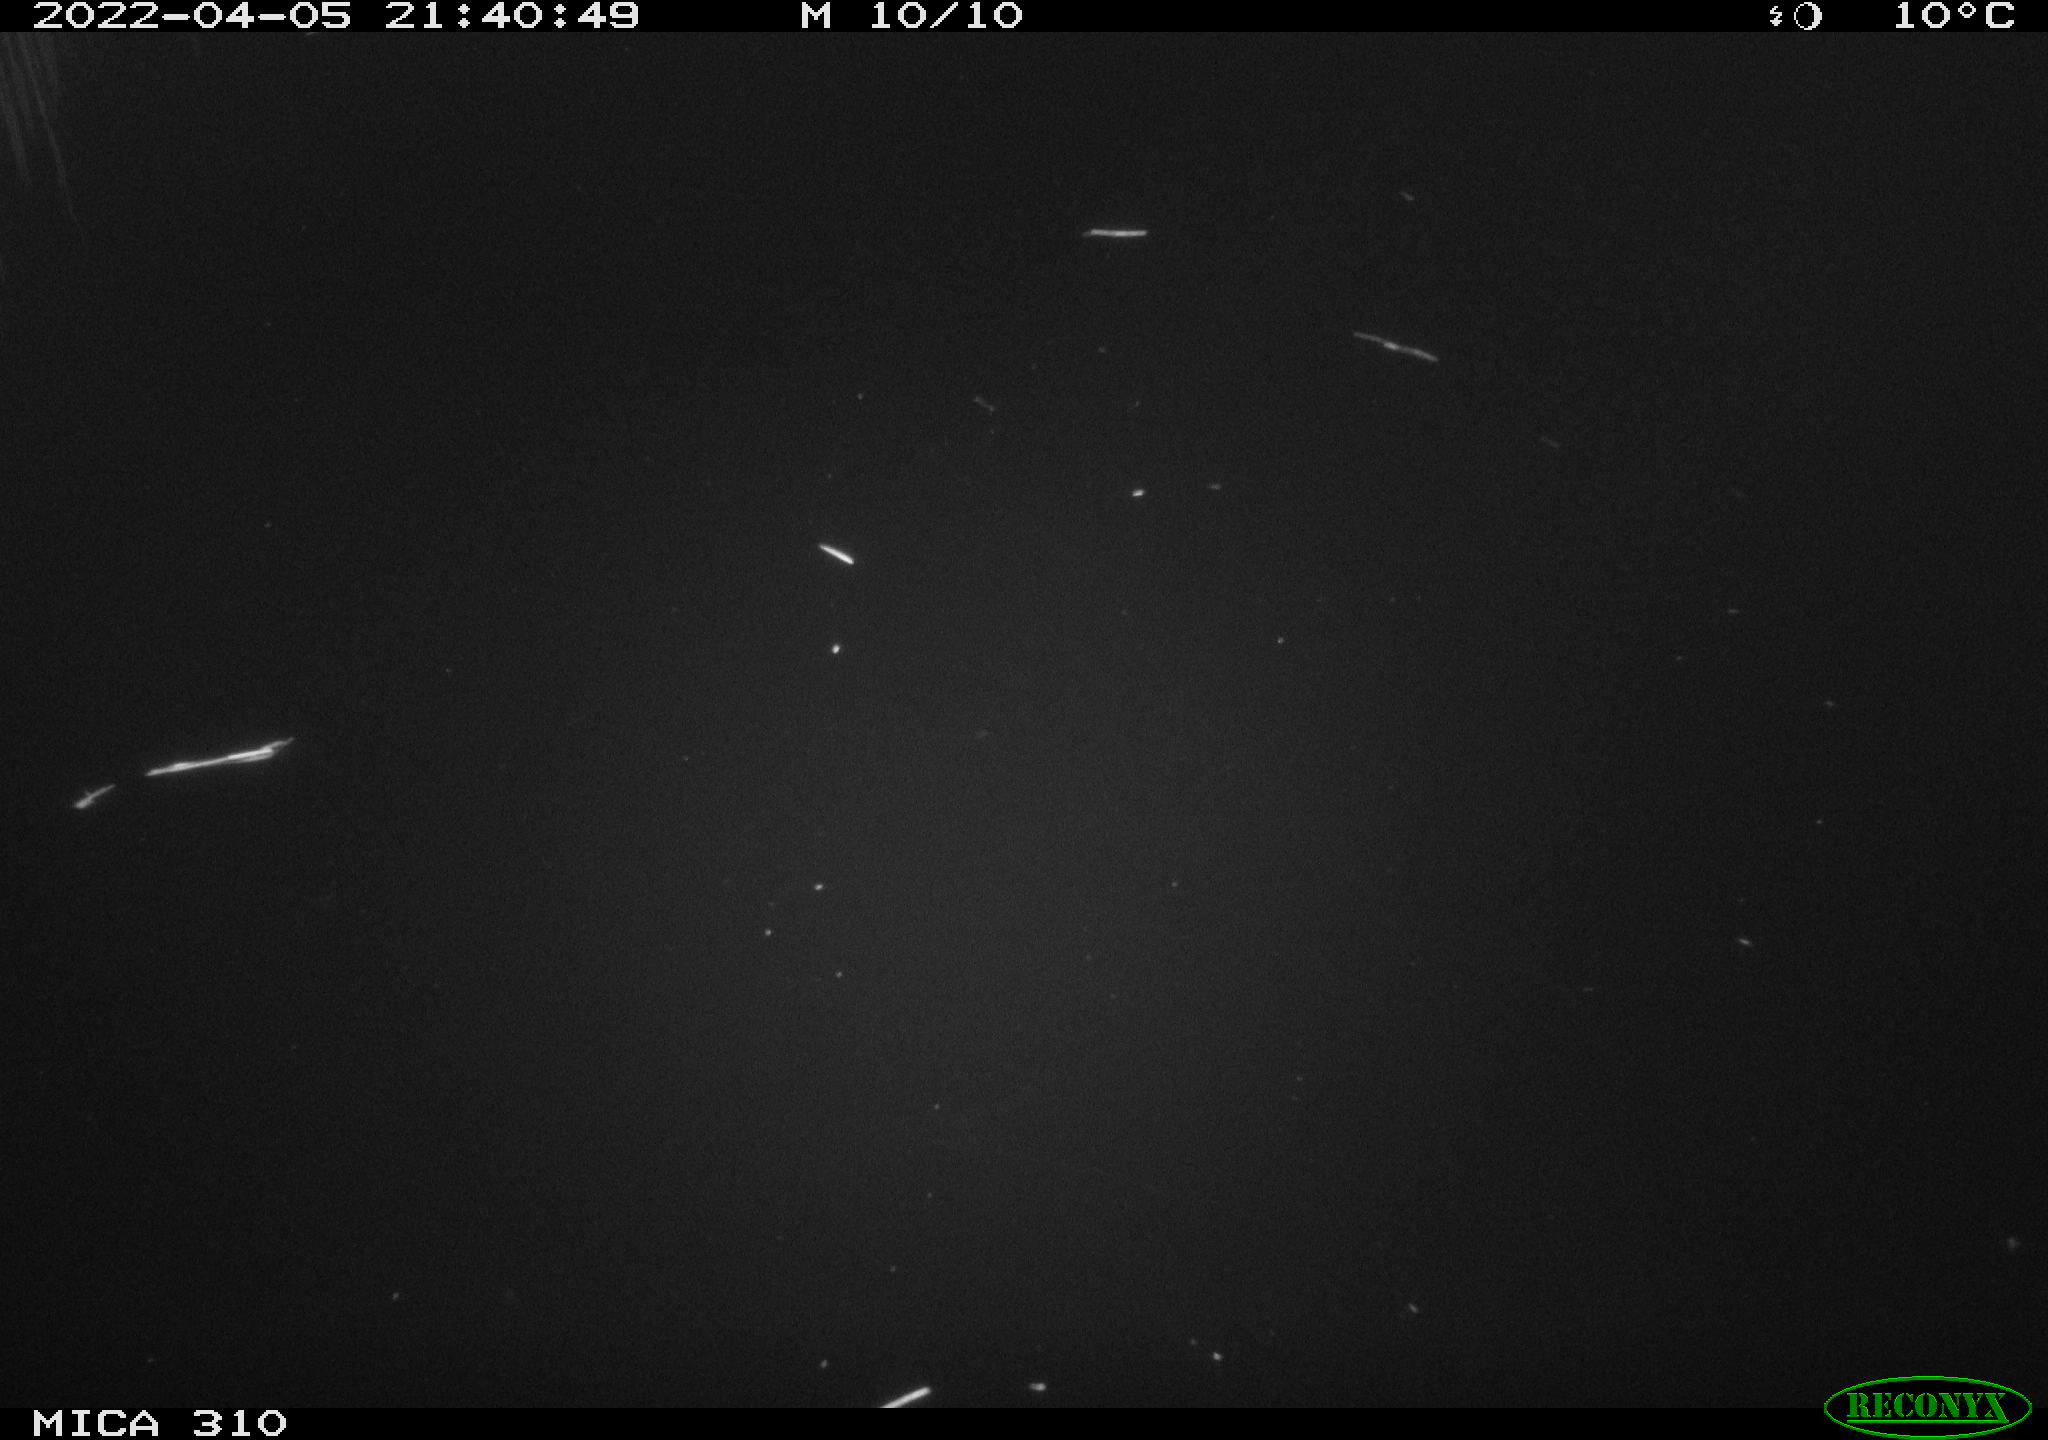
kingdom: Animalia
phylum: Chordata
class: Aves
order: Anseriformes
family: Anatidae
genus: Anas
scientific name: Anas platyrhynchos
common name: Mallard
